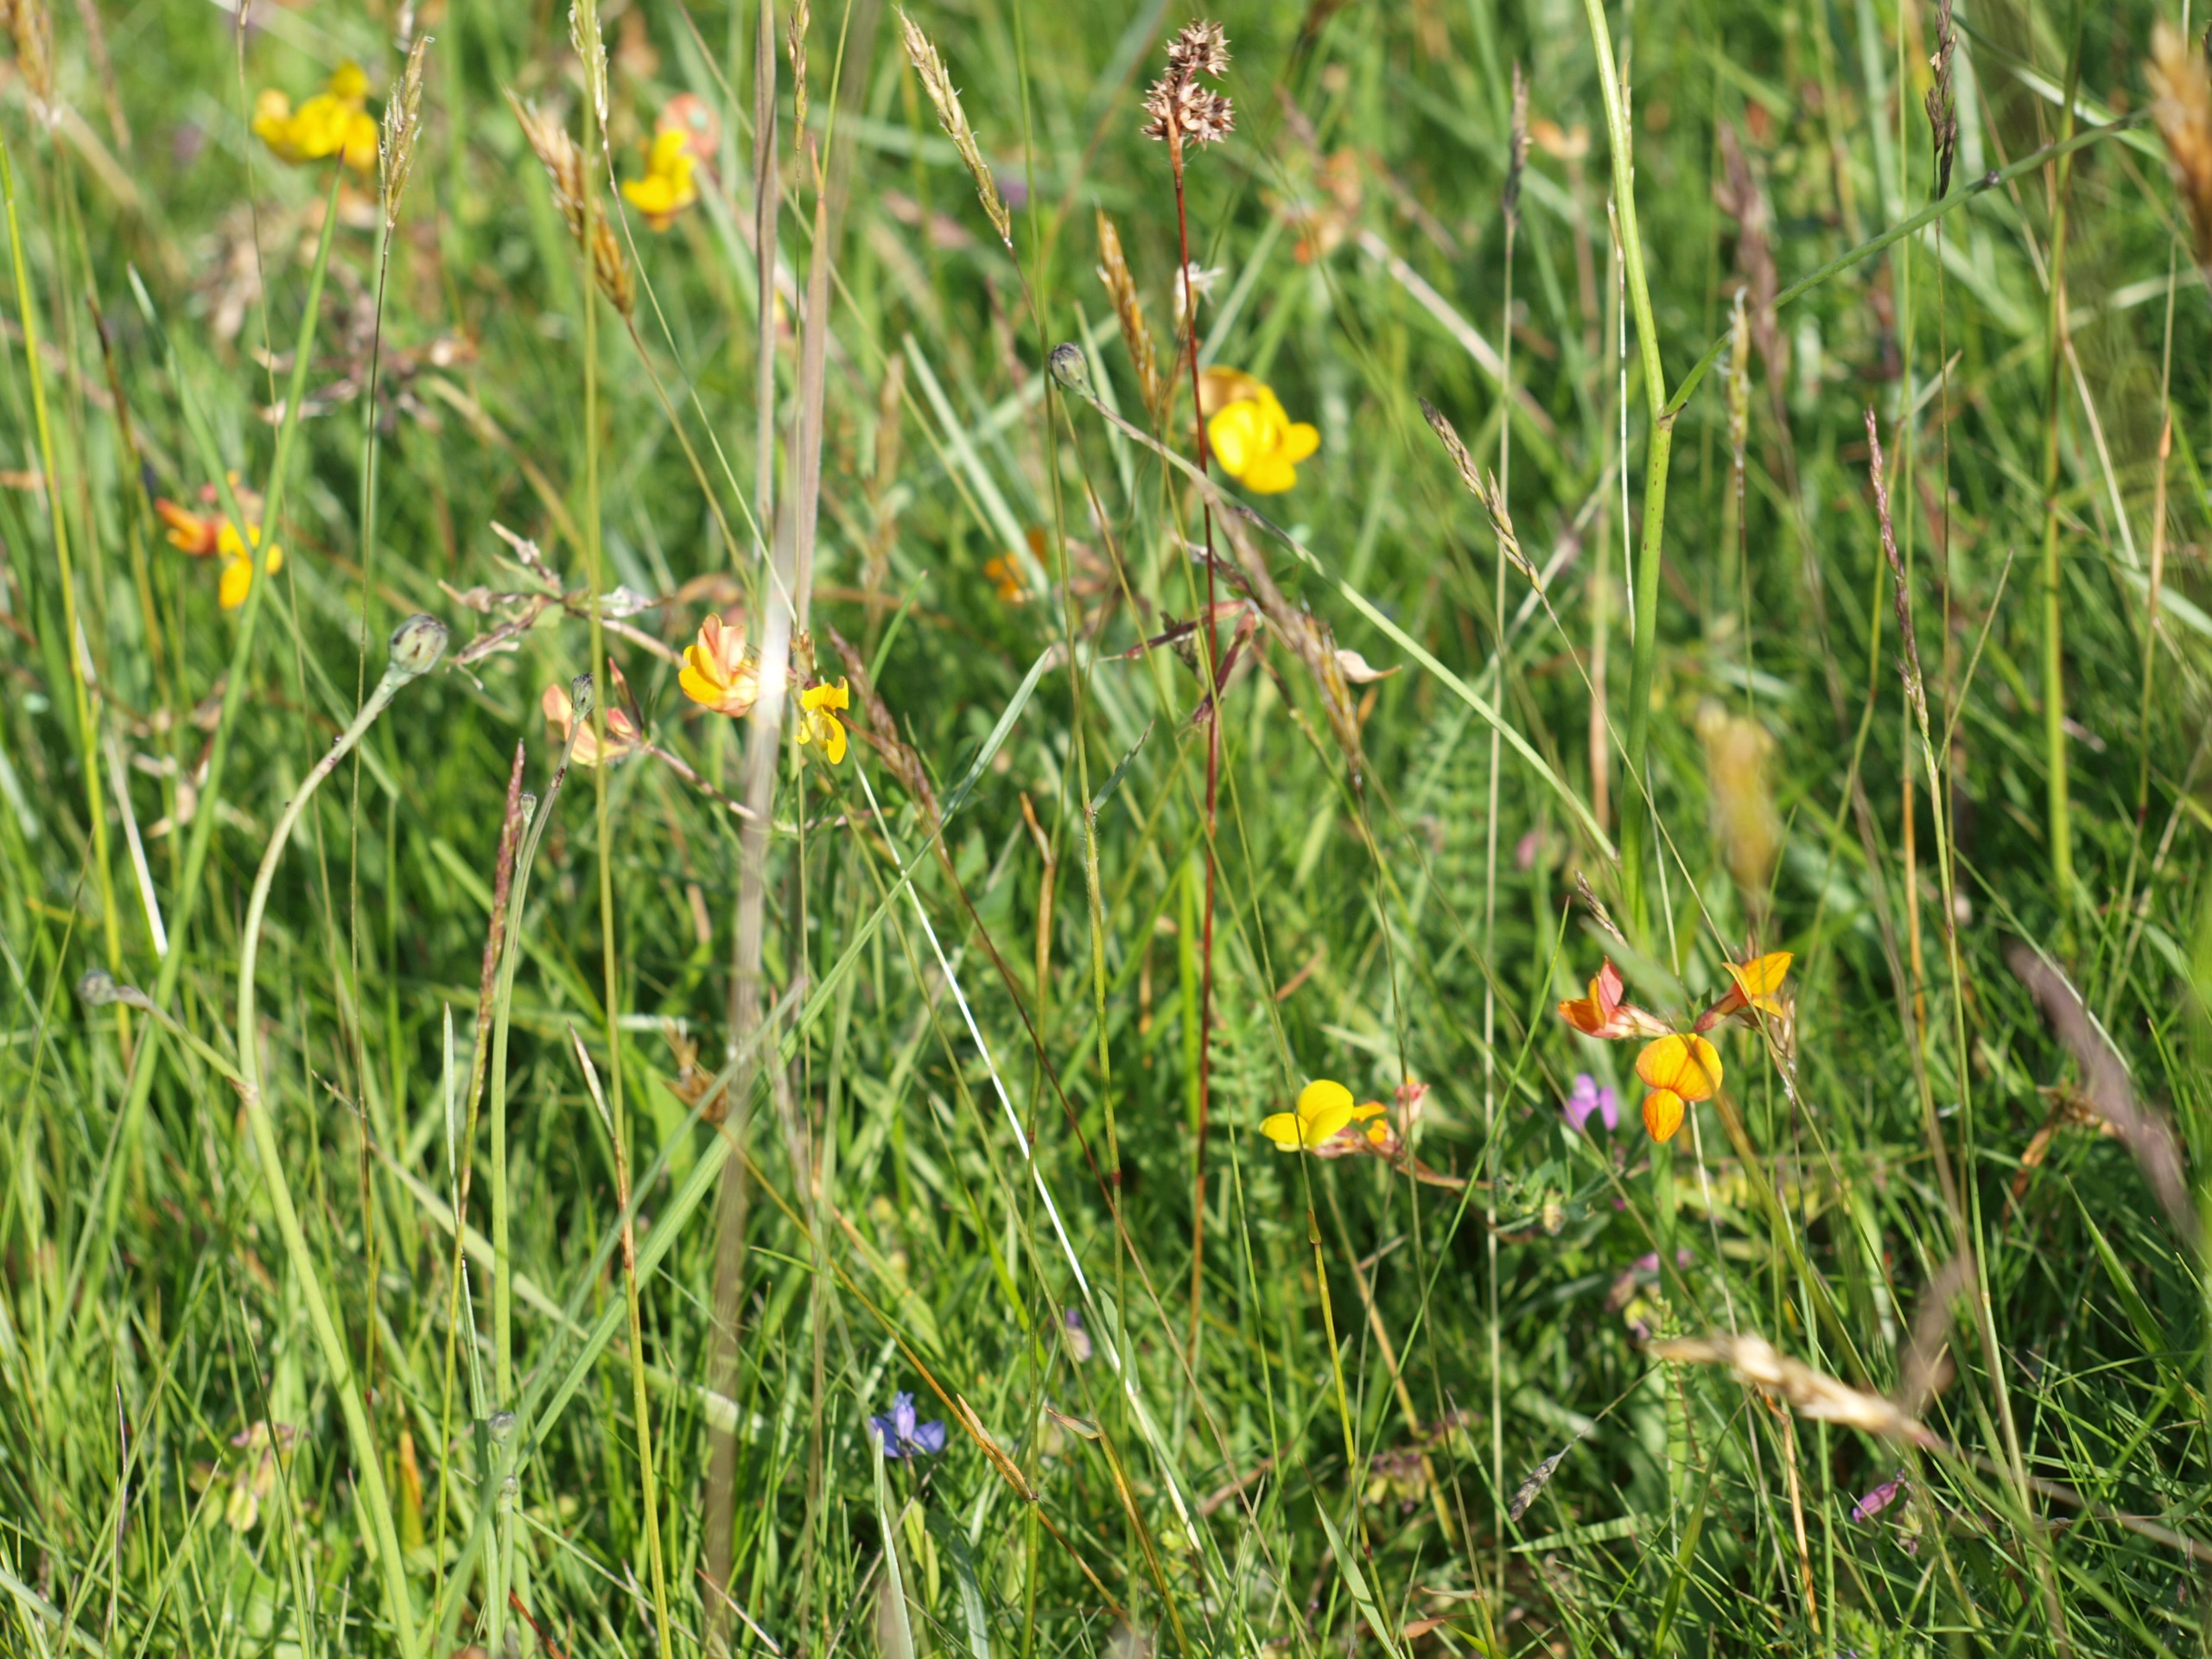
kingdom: Plantae
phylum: Tracheophyta
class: Magnoliopsida
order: Fabales
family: Fabaceae
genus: Lotus
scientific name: Lotus corniculatus
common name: Almindelig kællingetand
